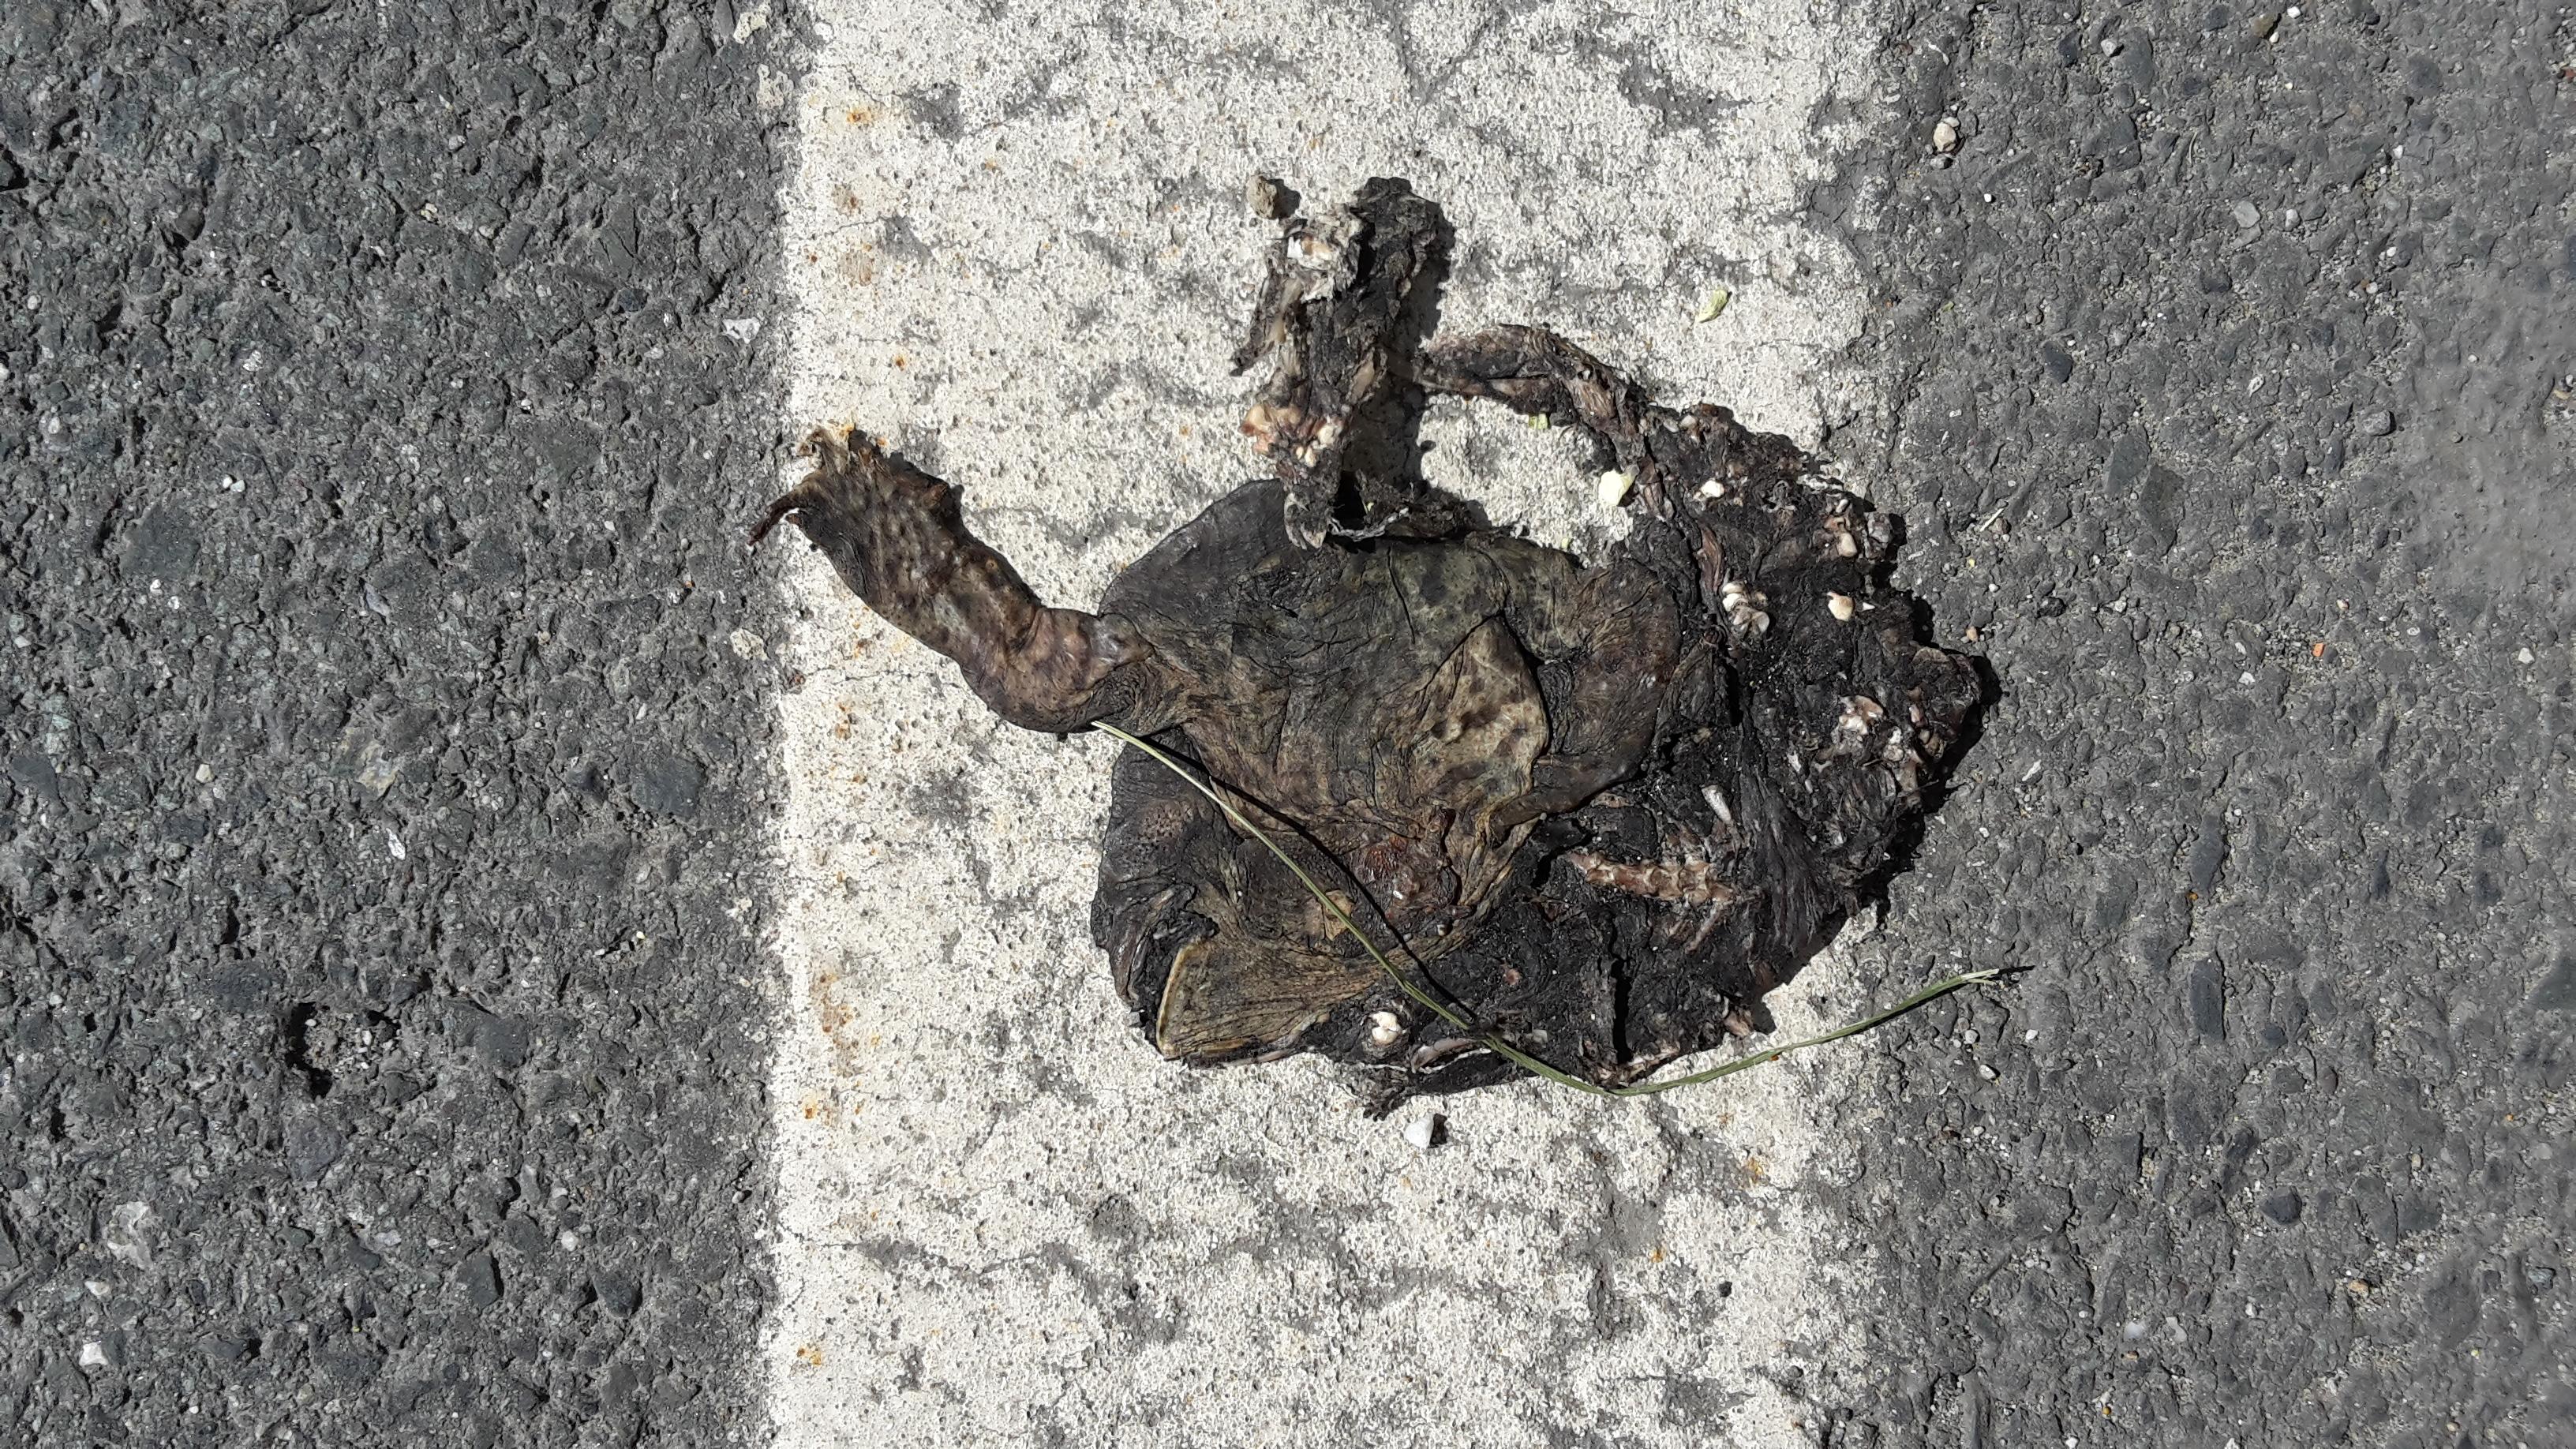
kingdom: Animalia
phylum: Chordata
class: Amphibia
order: Anura
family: Bufonidae
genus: Bufo
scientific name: Bufo bufo
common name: Common toad
